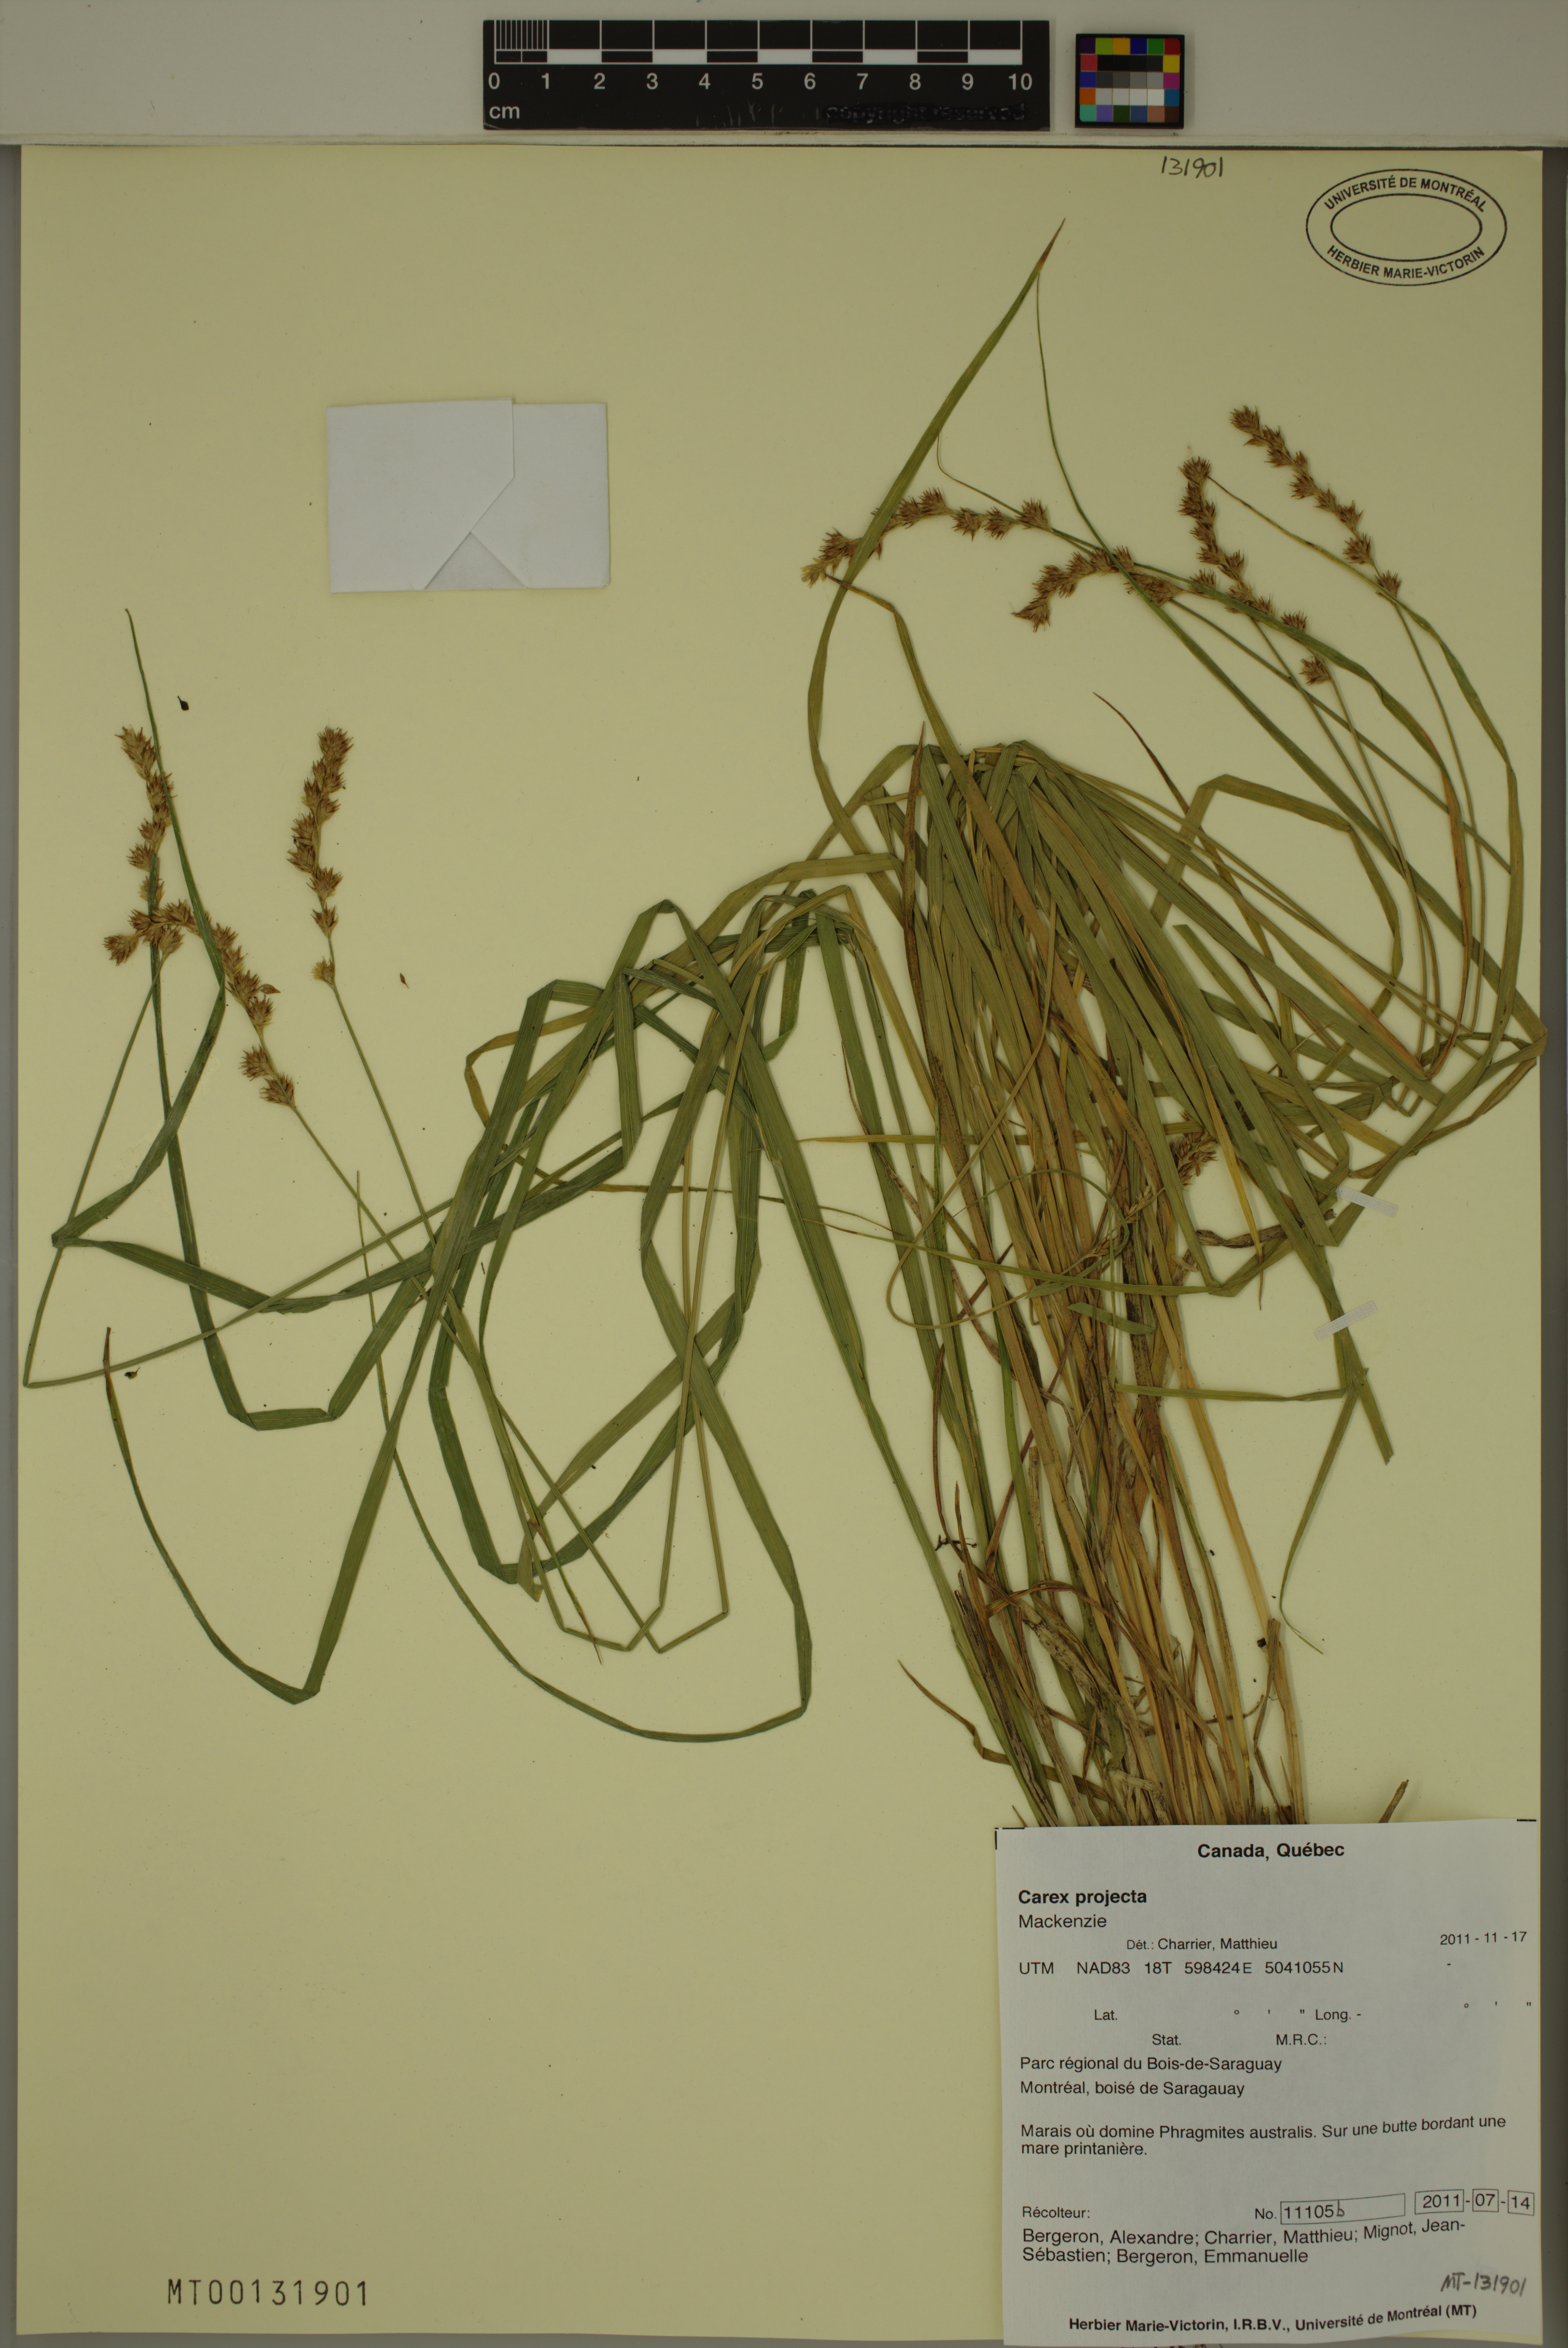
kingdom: Plantae
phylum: Tracheophyta
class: Liliopsida
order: Poales
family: Cyperaceae
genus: Carex
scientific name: Carex projecta
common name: Loose-headed oval sedge
